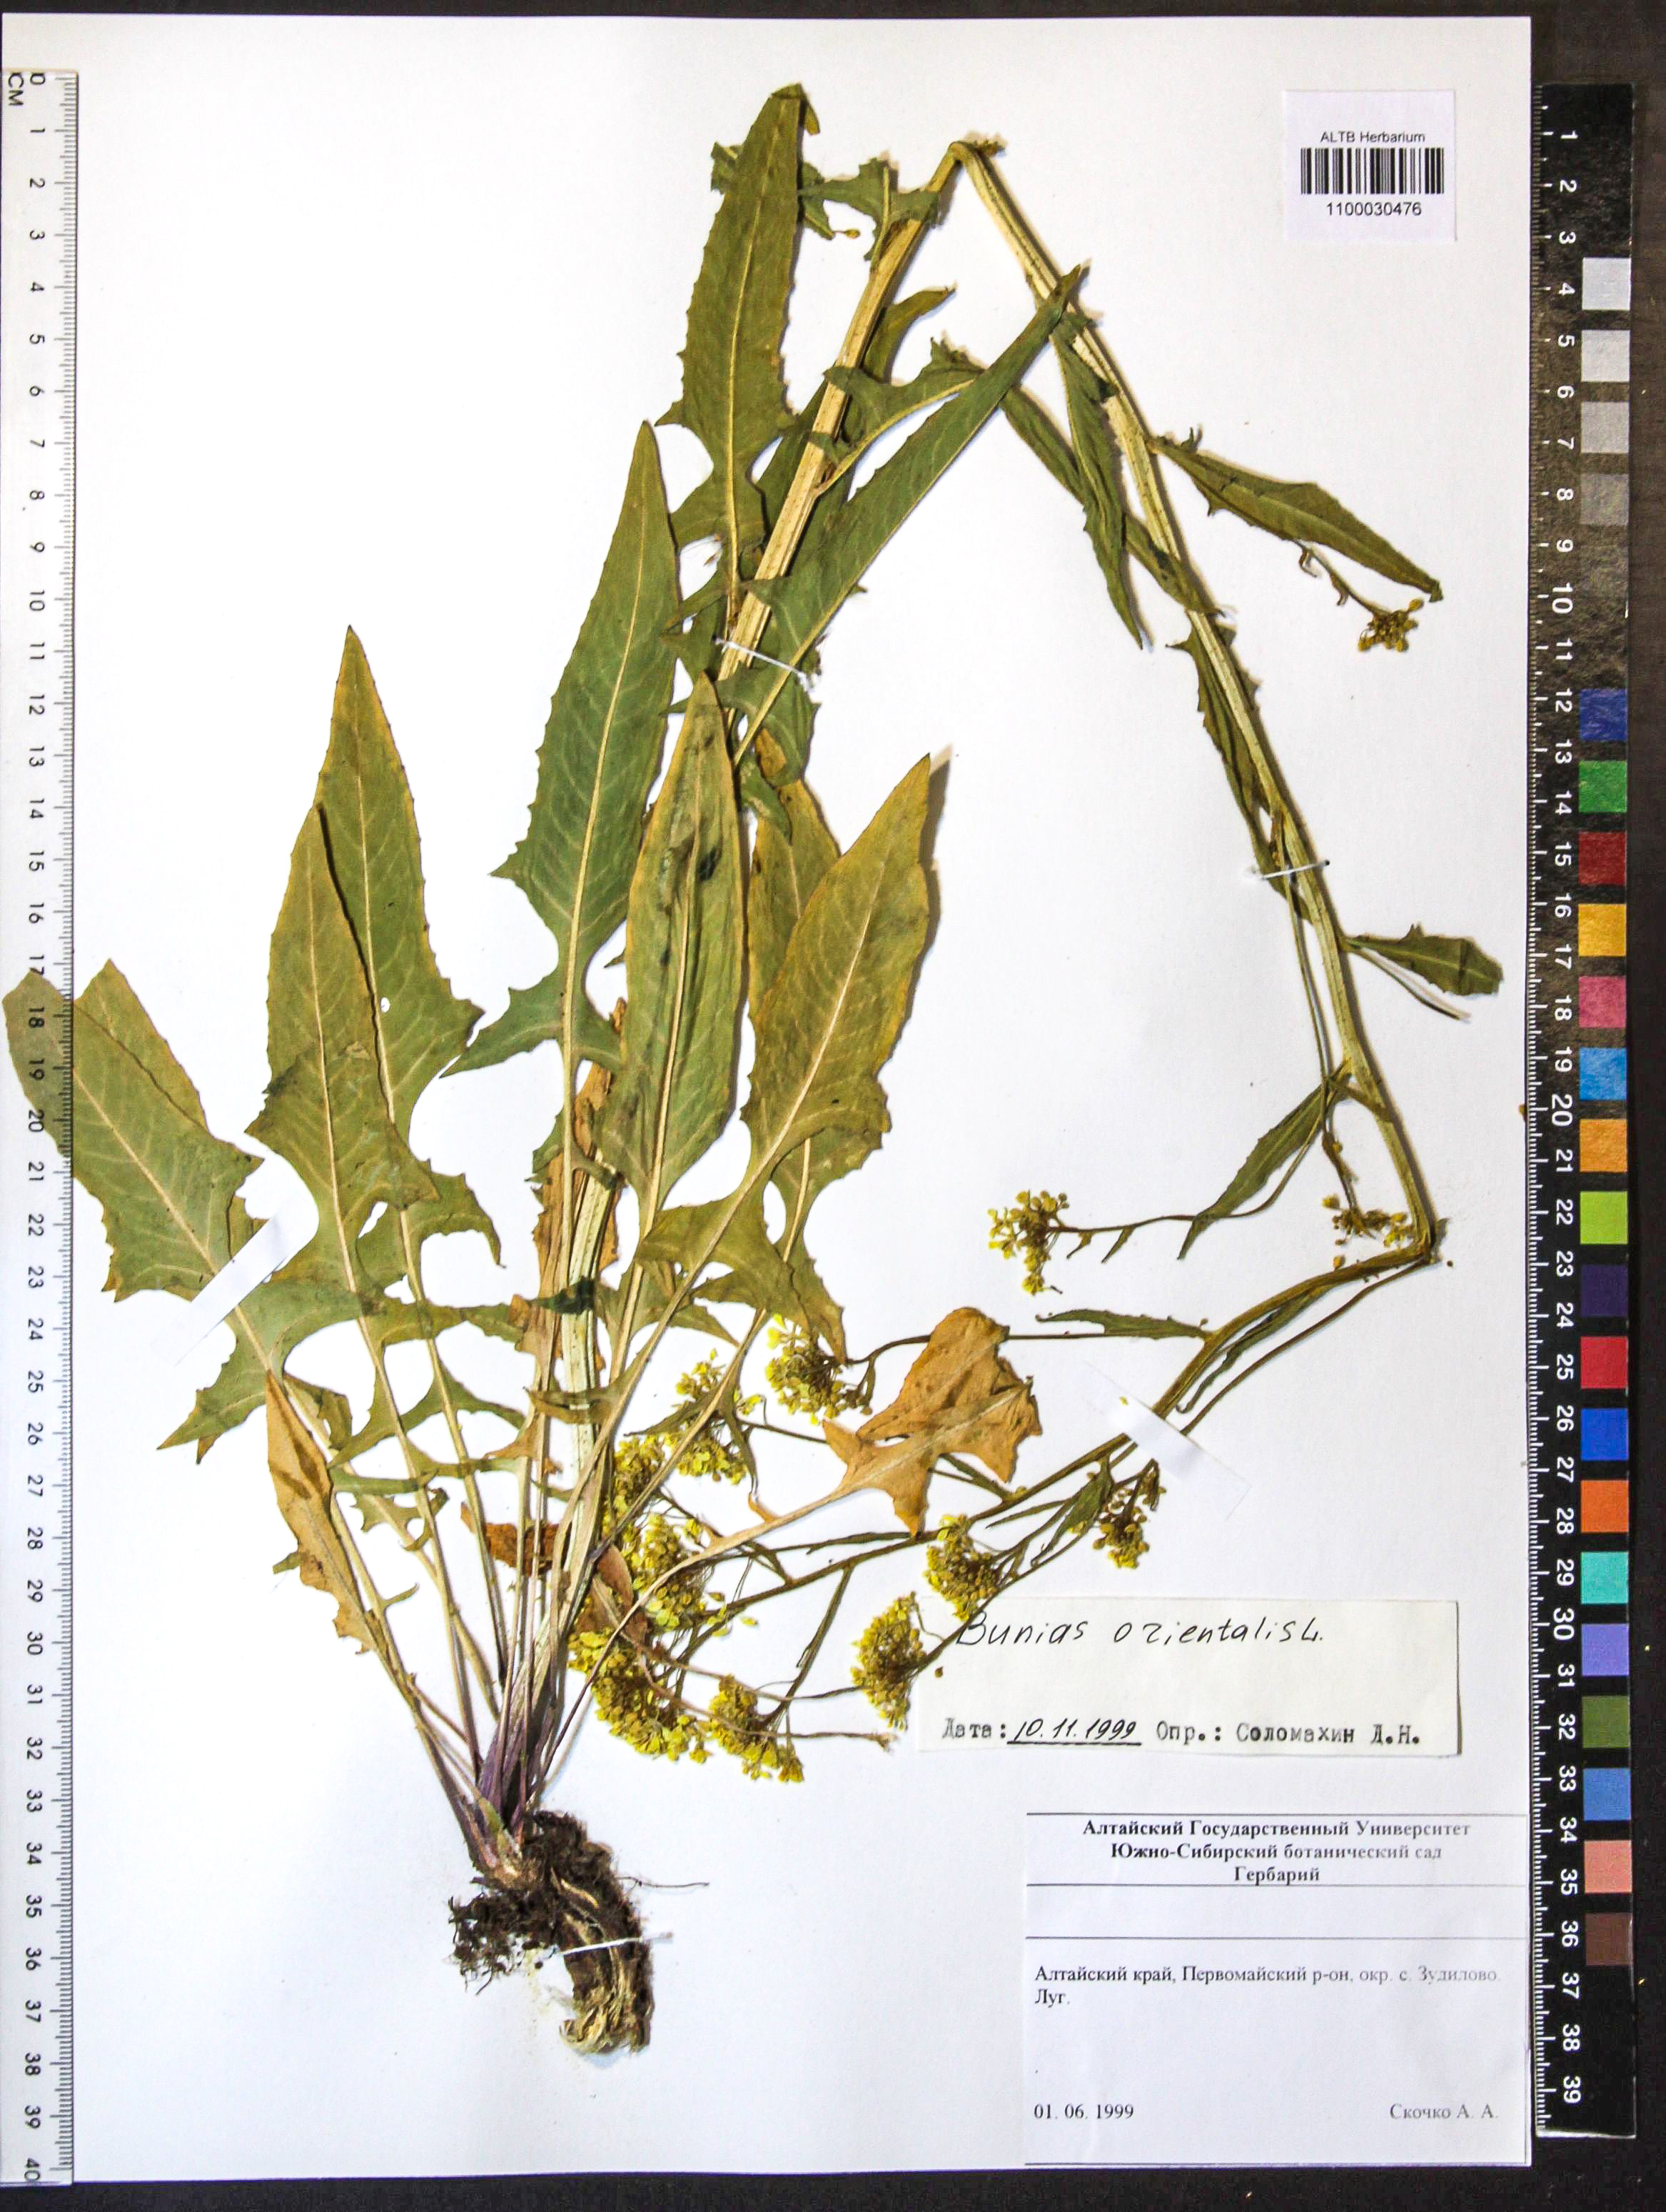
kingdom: Plantae
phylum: Tracheophyta
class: Magnoliopsida
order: Brassicales
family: Brassicaceae
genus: Bunias
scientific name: Bunias orientalis
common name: Warty-cabbage
